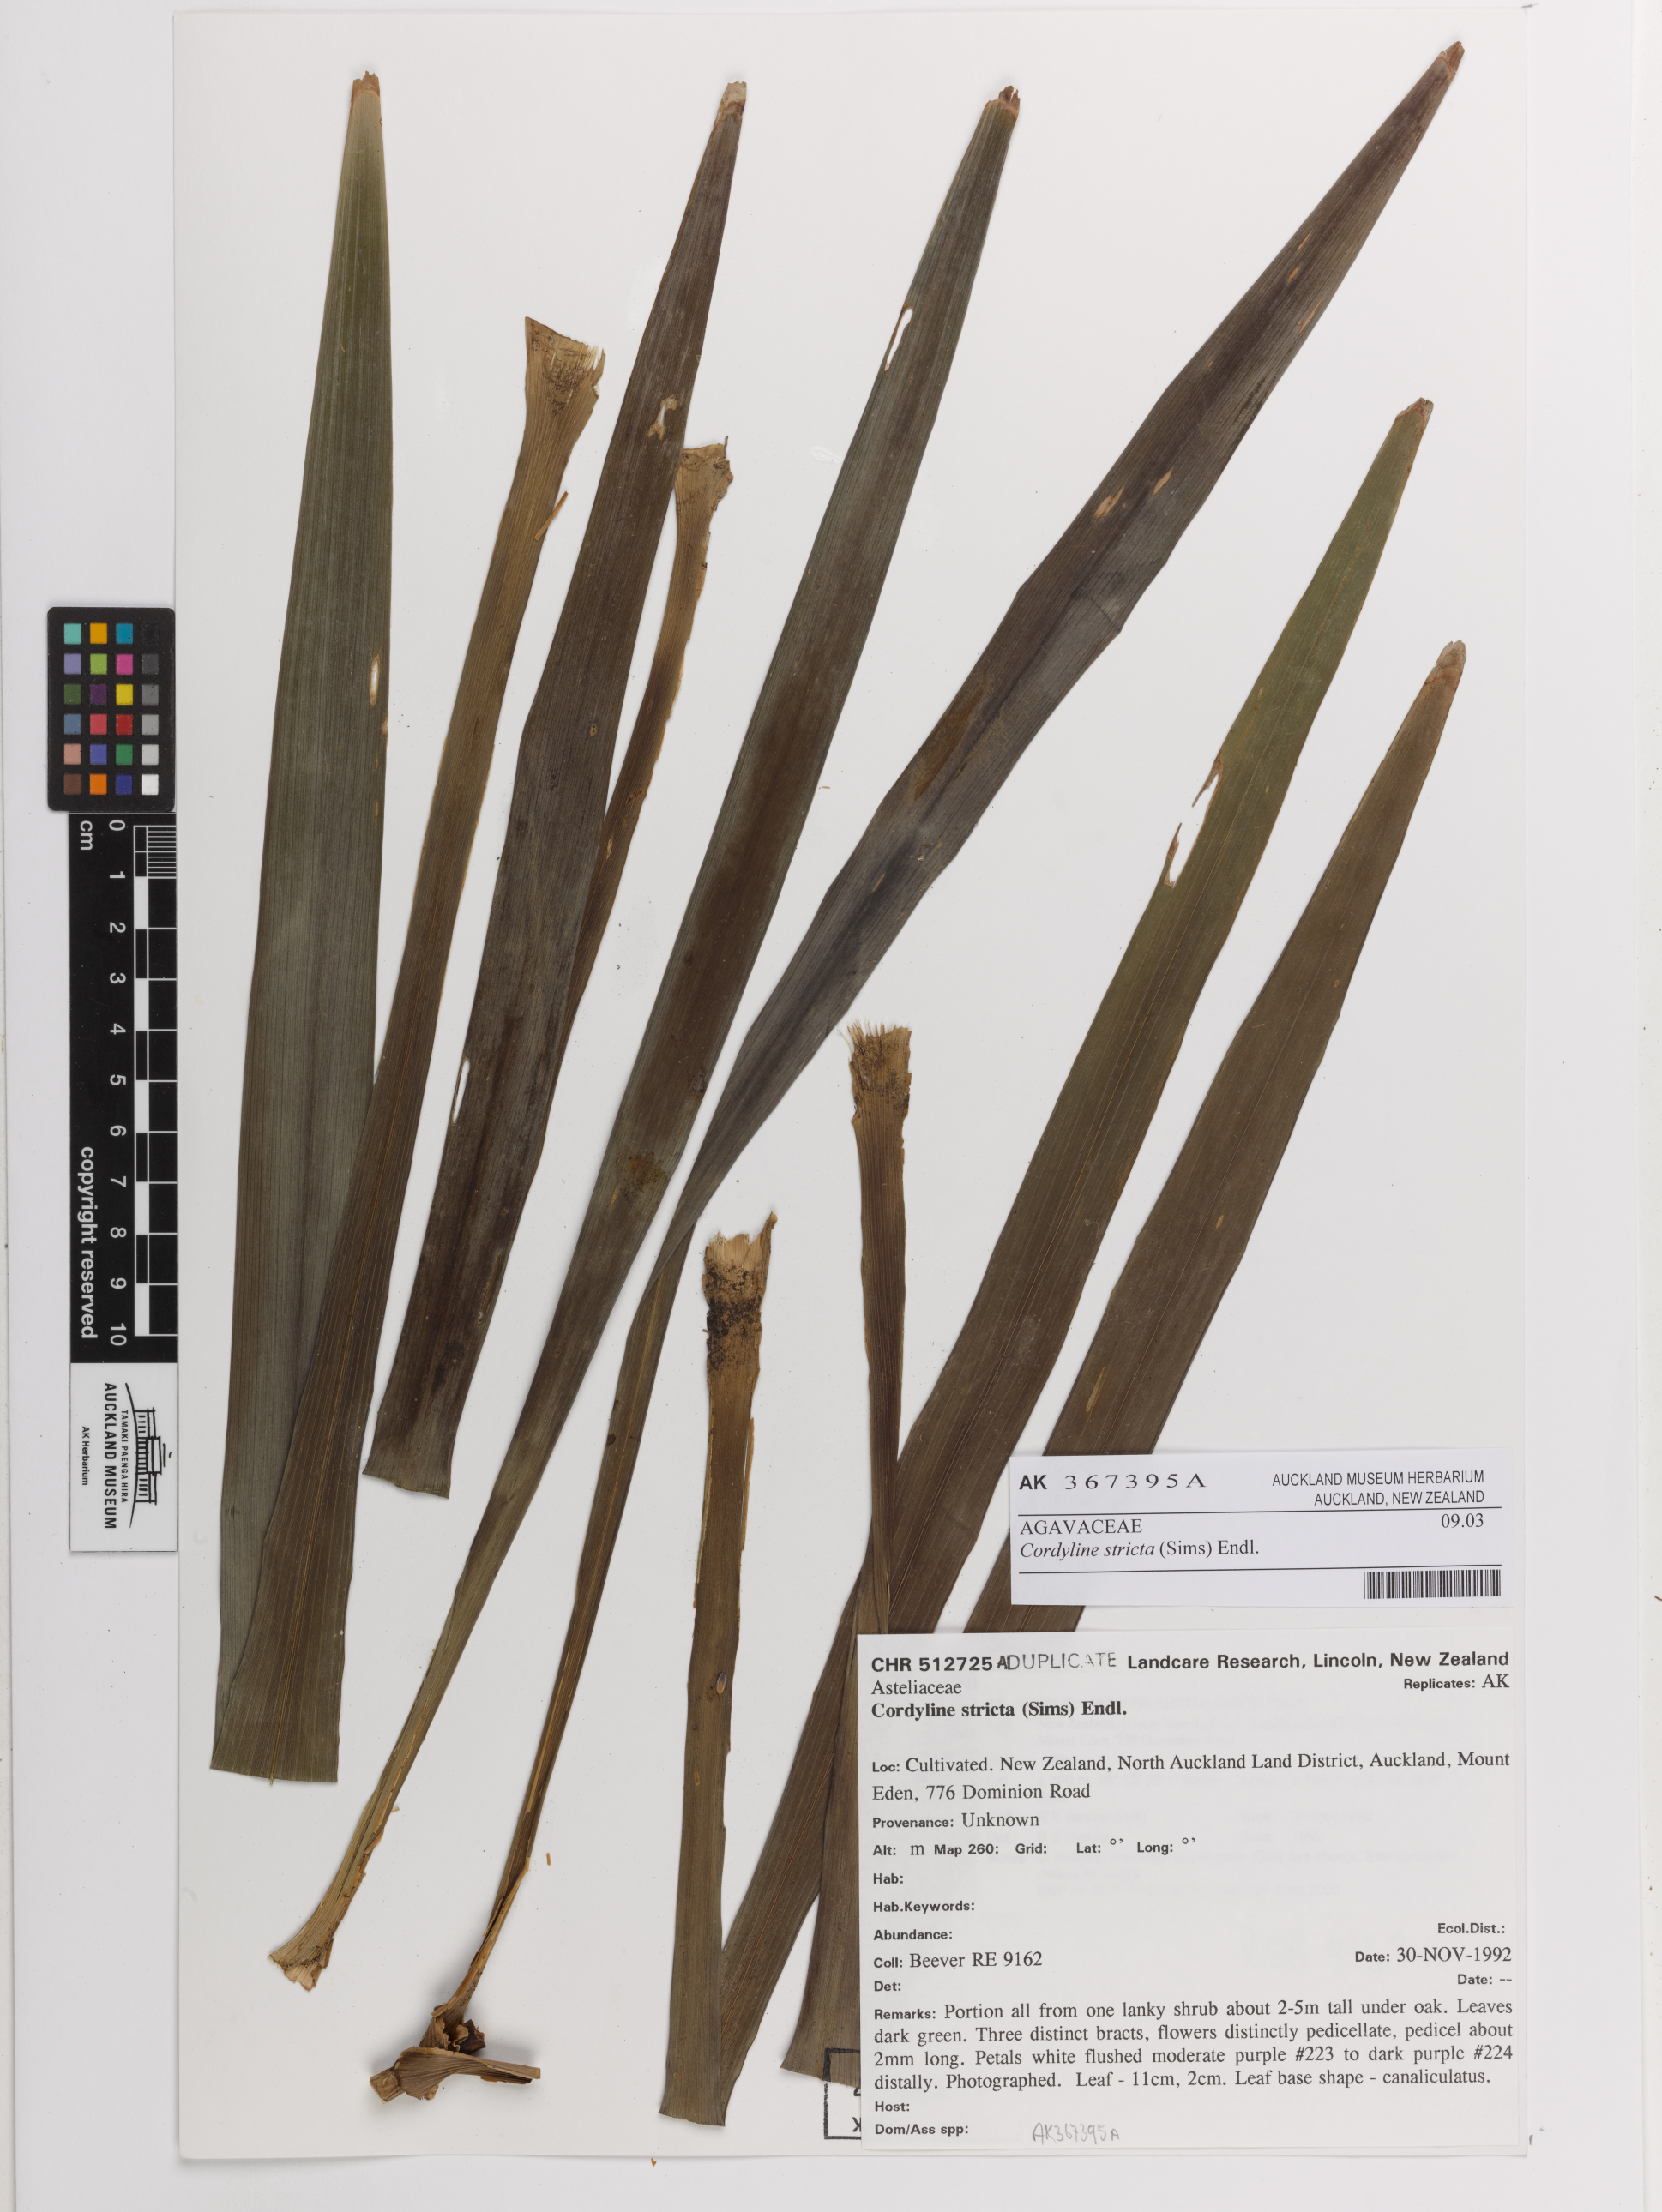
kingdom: Plantae
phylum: Tracheophyta
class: Liliopsida
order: Asparagales
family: Asparagaceae
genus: Cordyline
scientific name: Cordyline stricta
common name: Narrow-leaf palm-lily
